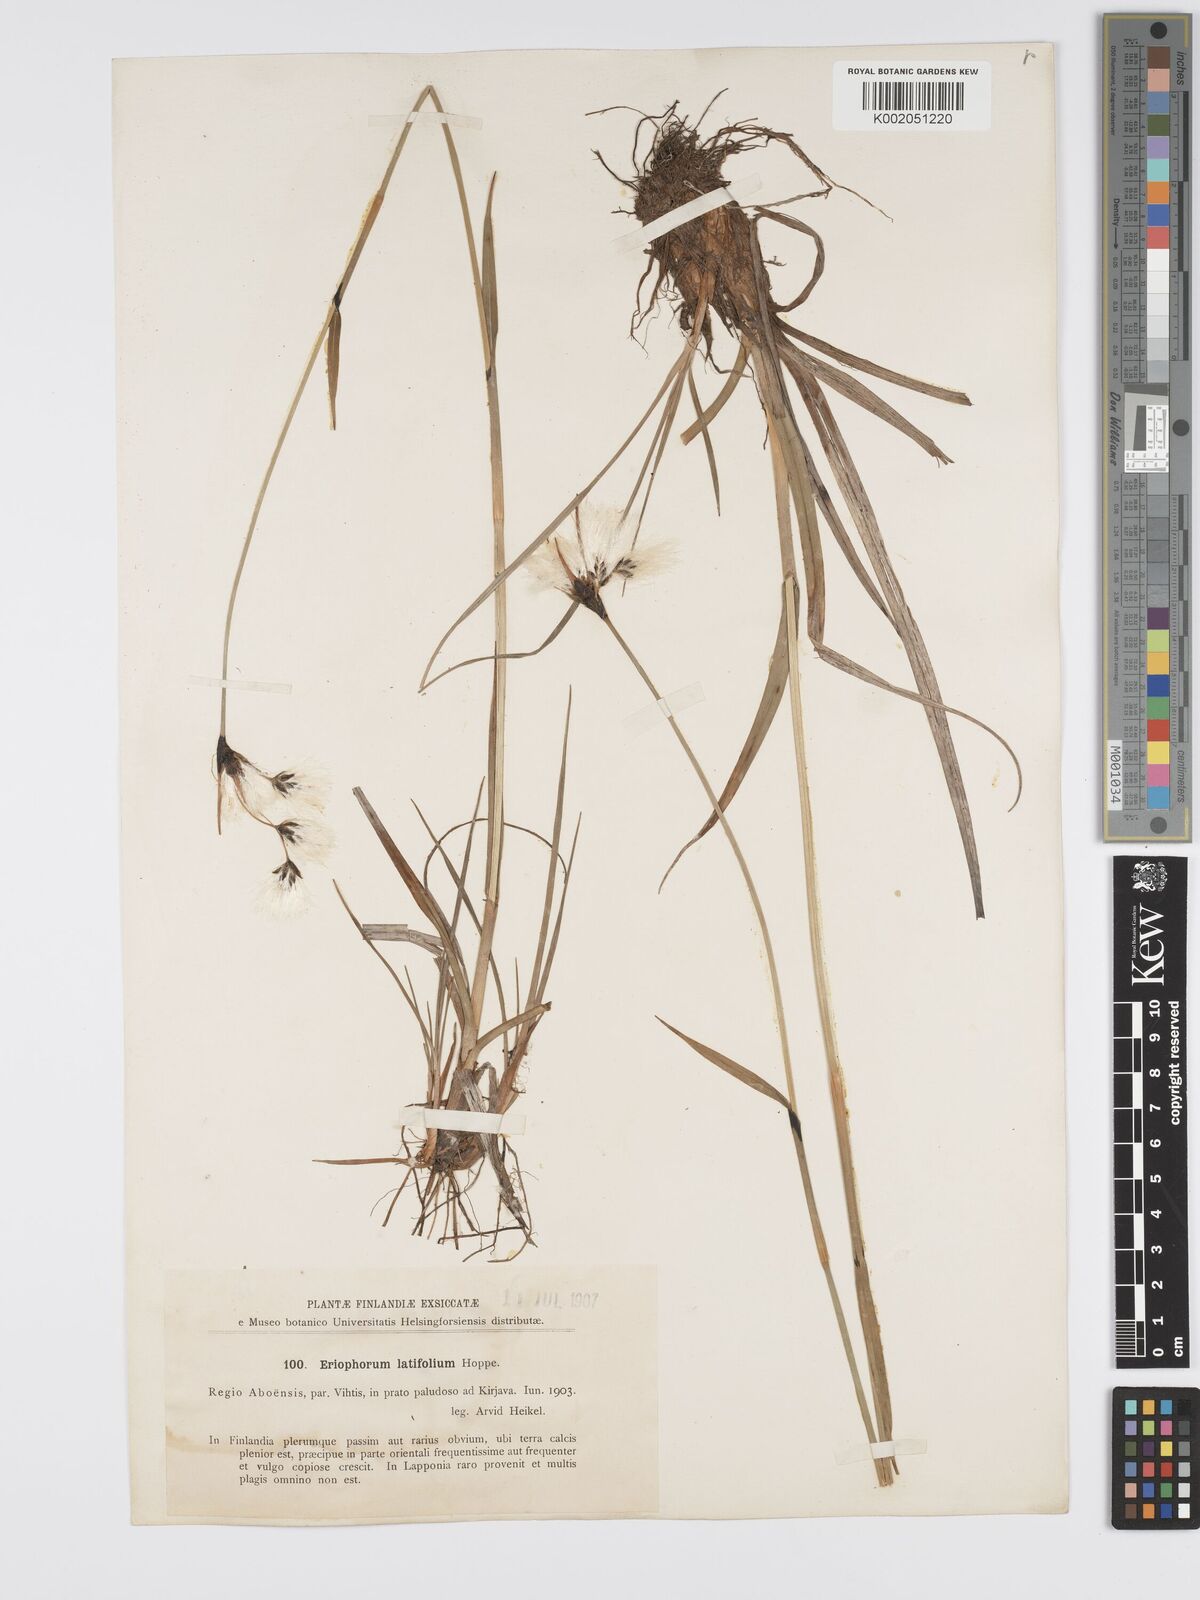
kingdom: Plantae
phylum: Tracheophyta
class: Liliopsida
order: Poales
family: Cyperaceae
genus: Eriophorum
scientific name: Eriophorum latifolium
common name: Broad-leaved cottongrass
